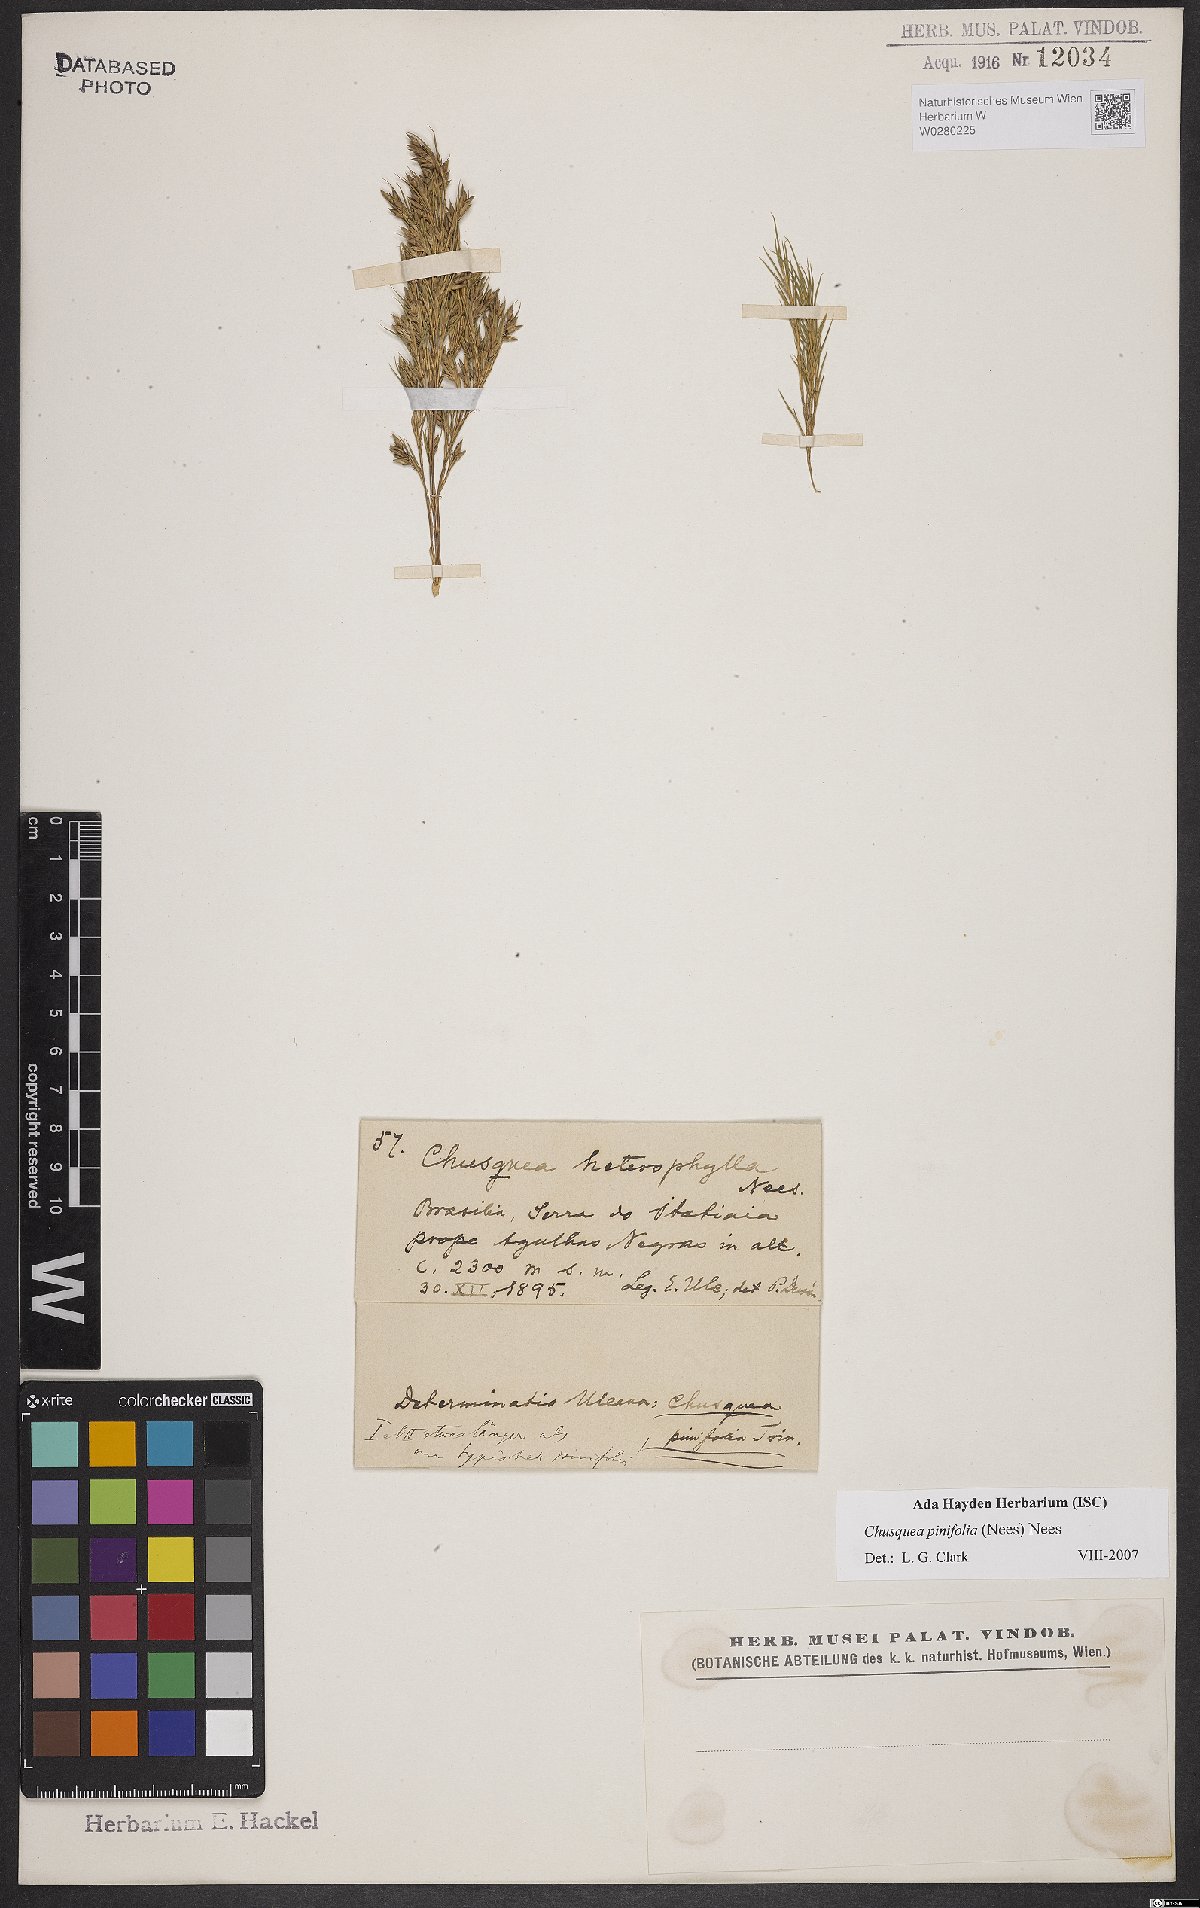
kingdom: Plantae
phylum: Tracheophyta
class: Liliopsida
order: Poales
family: Poaceae
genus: Chusquea
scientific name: Chusquea pinifolia
